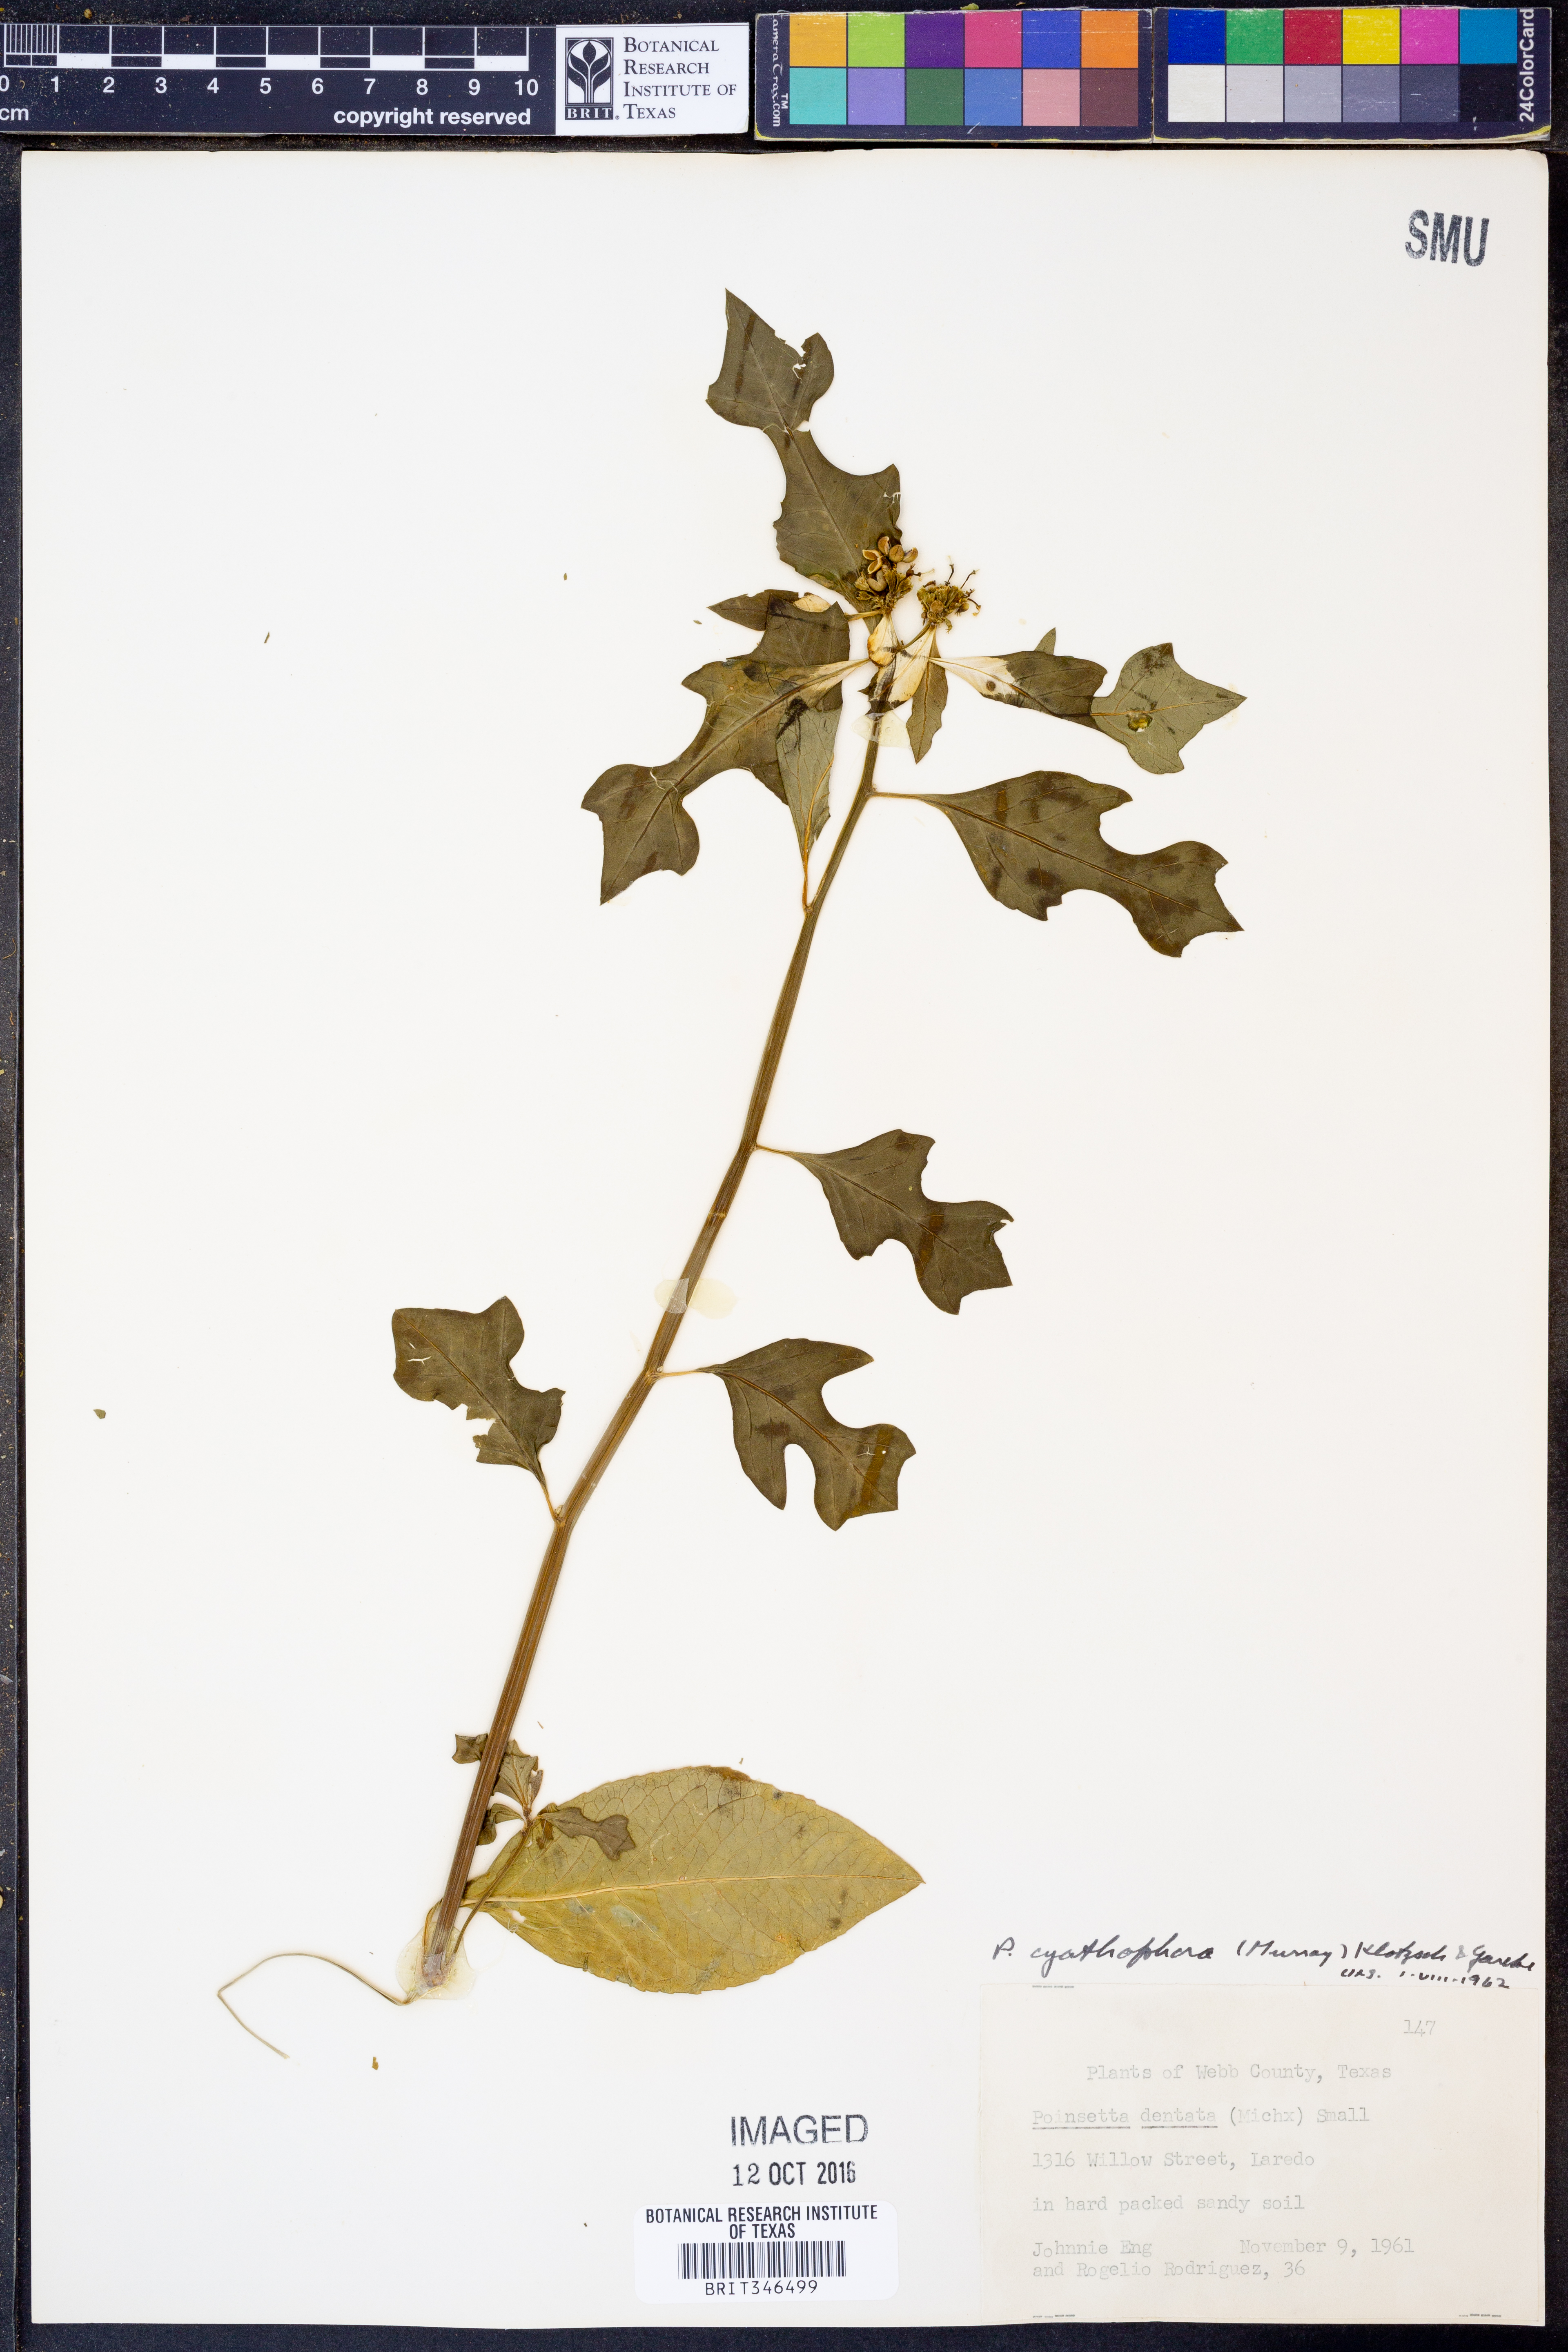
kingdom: Plantae
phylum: Tracheophyta
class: Magnoliopsida
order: Malpighiales
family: Euphorbiaceae
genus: Euphorbia
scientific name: Euphorbia heterophylla
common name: Mexican fireplant
